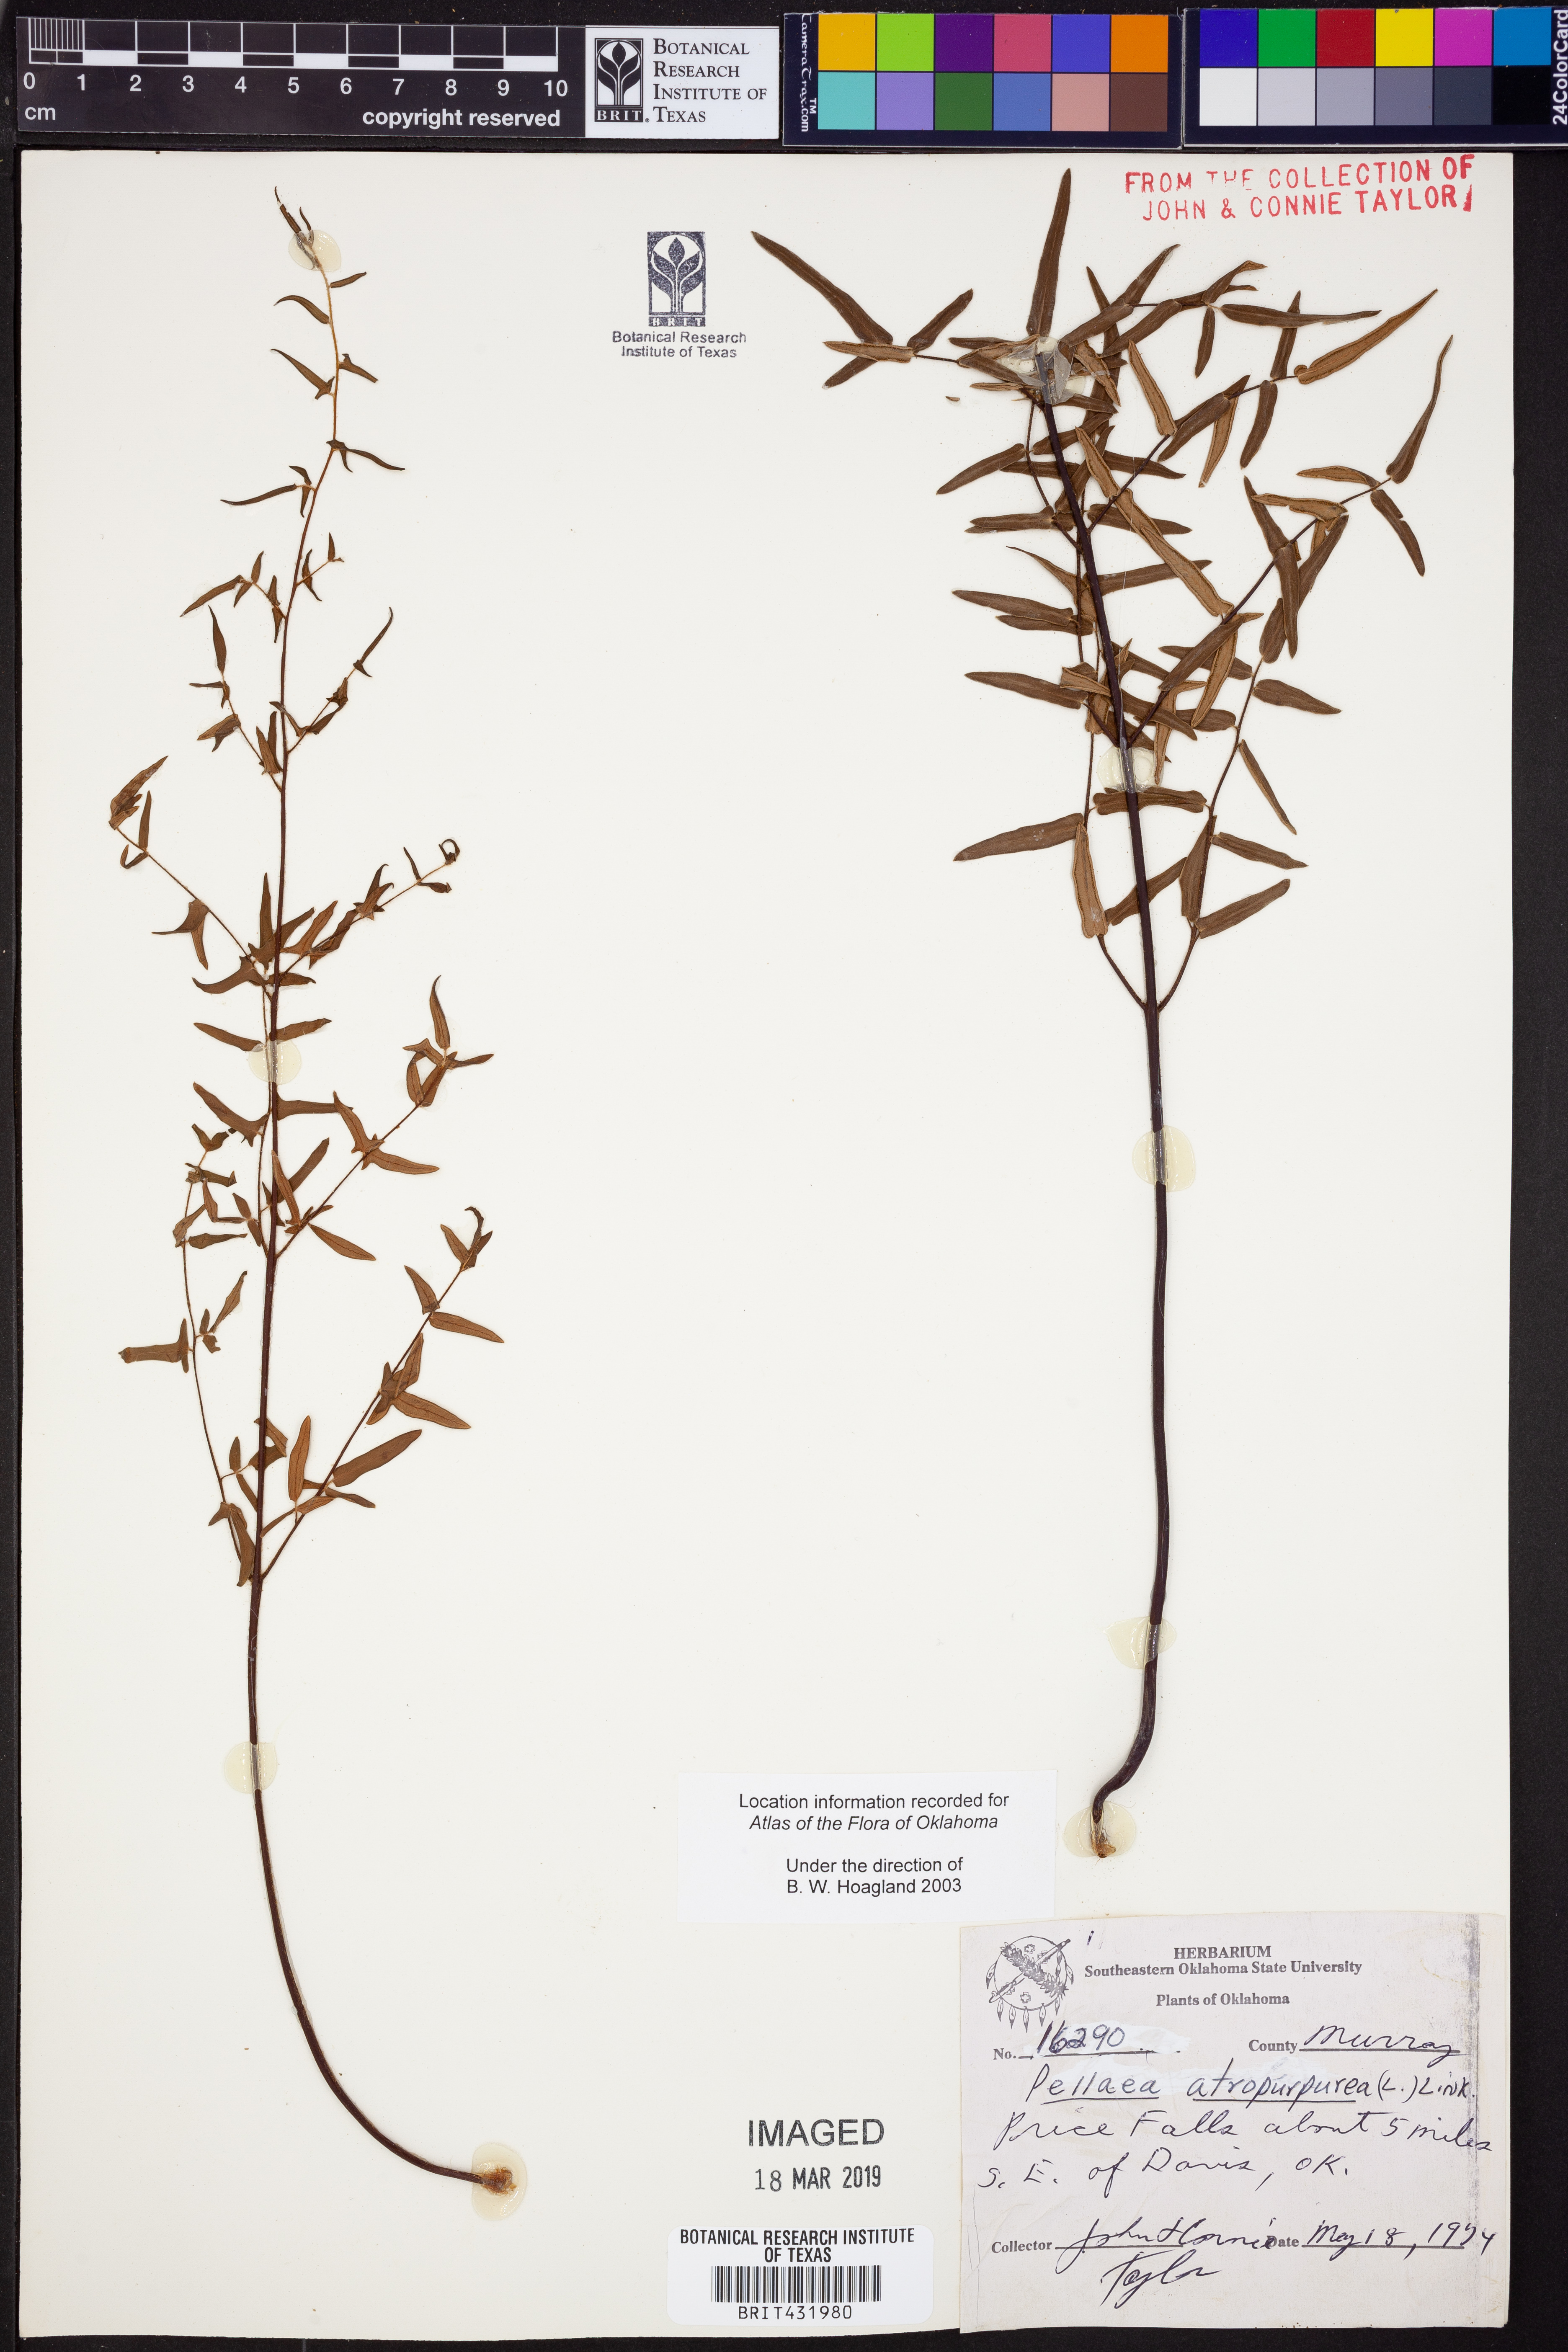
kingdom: Plantae
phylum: Tracheophyta
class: Polypodiopsida
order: Polypodiales
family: Pteridaceae
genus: Pellaea
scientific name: Pellaea atropurpurea
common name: Hairy cliffbrake
